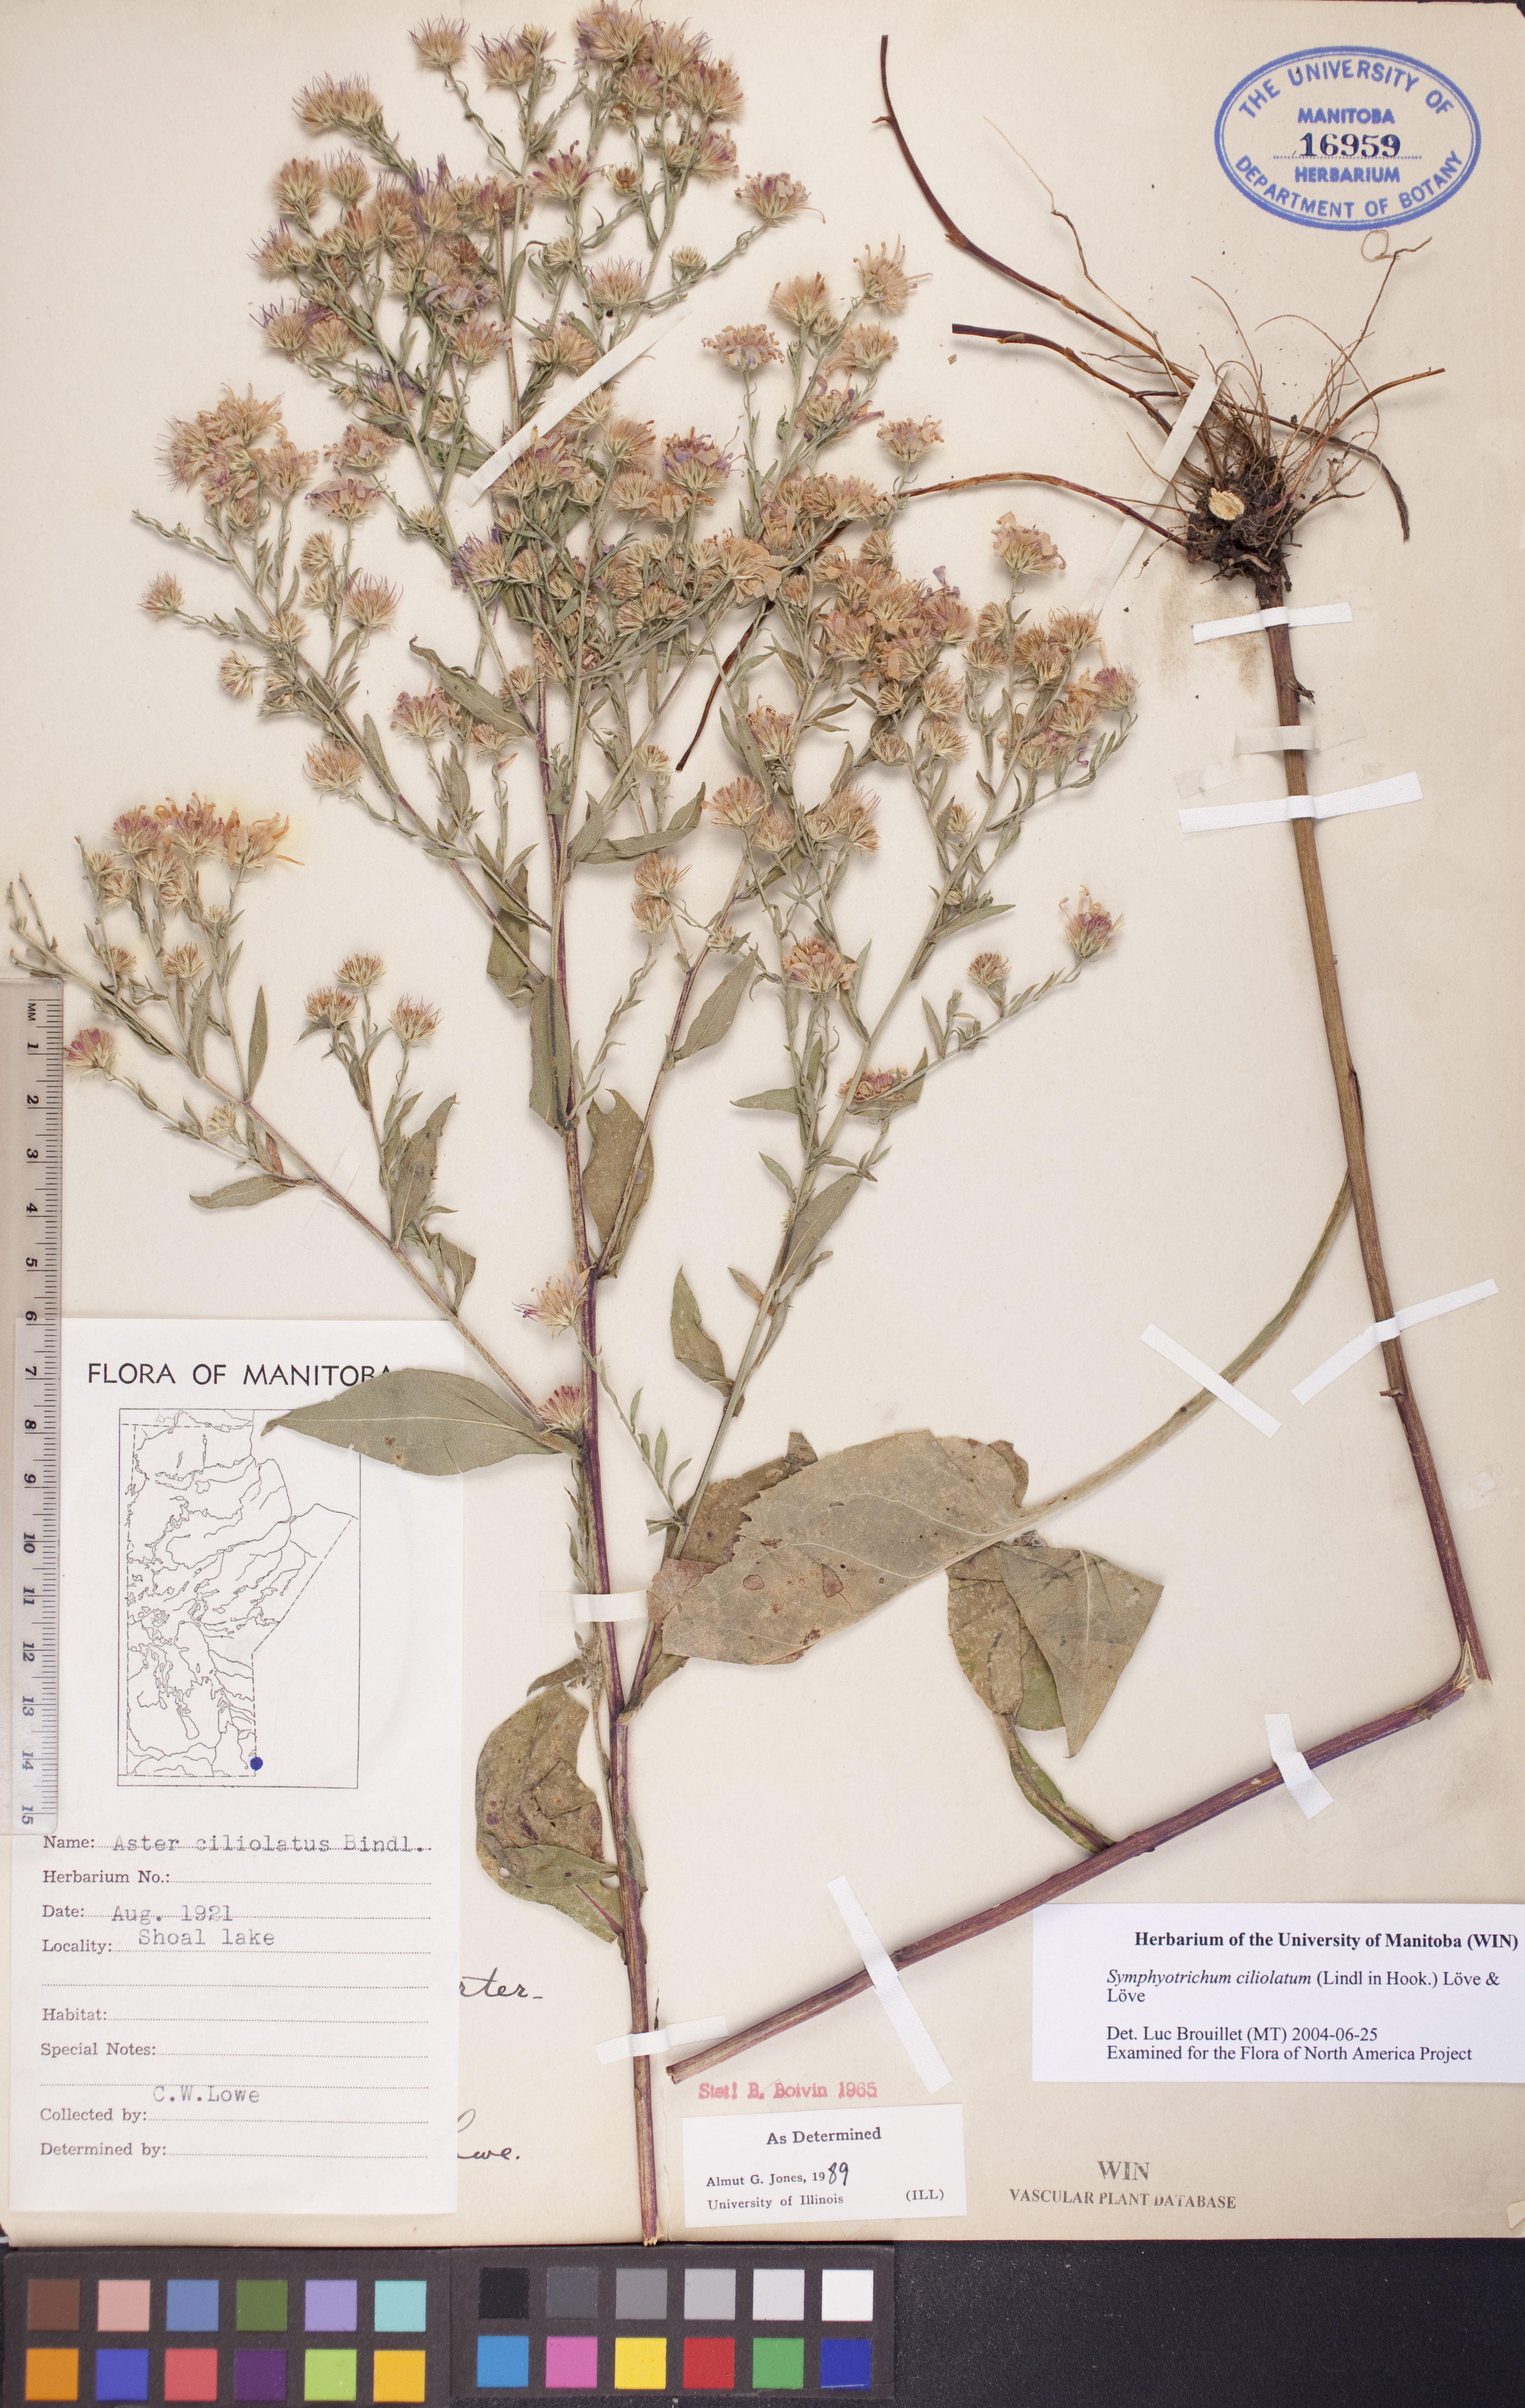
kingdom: Plantae
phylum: Tracheophyta
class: Magnoliopsida
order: Asterales
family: Asteraceae
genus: Symphyotrichum
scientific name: Symphyotrichum ciliolatum
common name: Fringed blue aster
